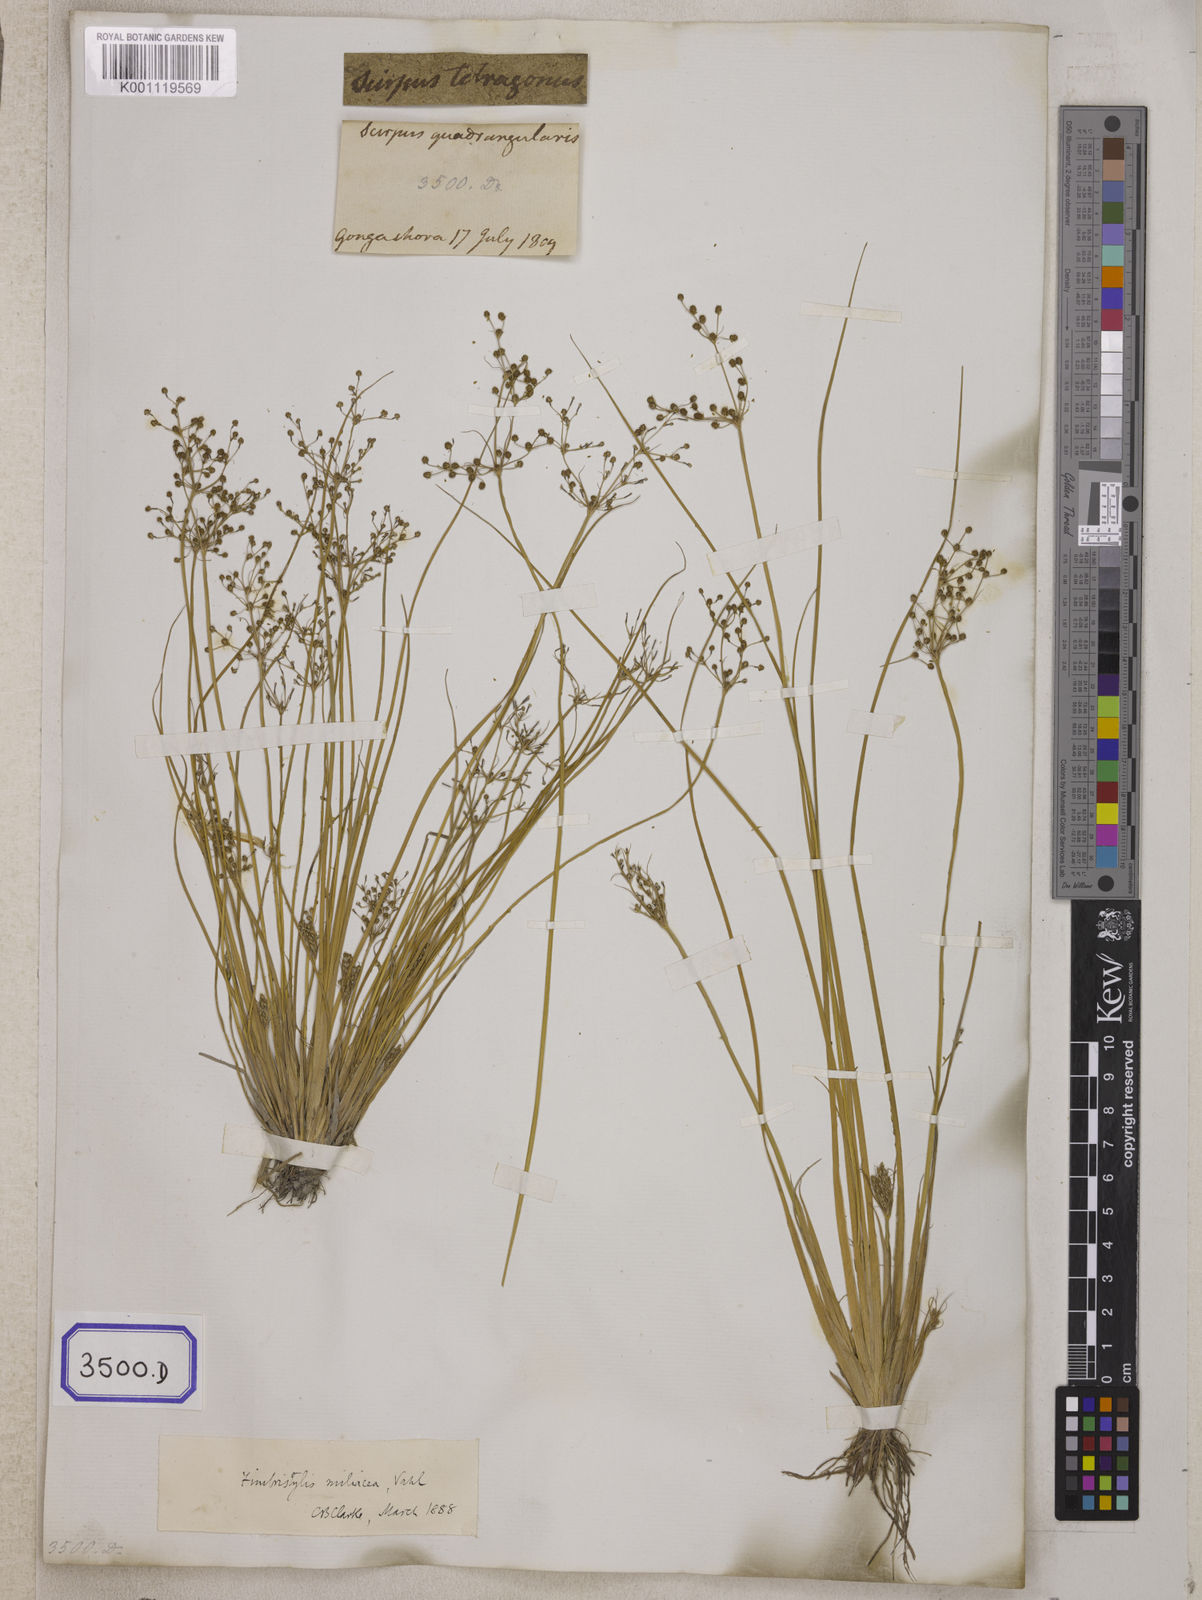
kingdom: Plantae
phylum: Tracheophyta
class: Liliopsida
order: Poales
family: Cyperaceae
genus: Fimbristylis
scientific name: Fimbristylis
